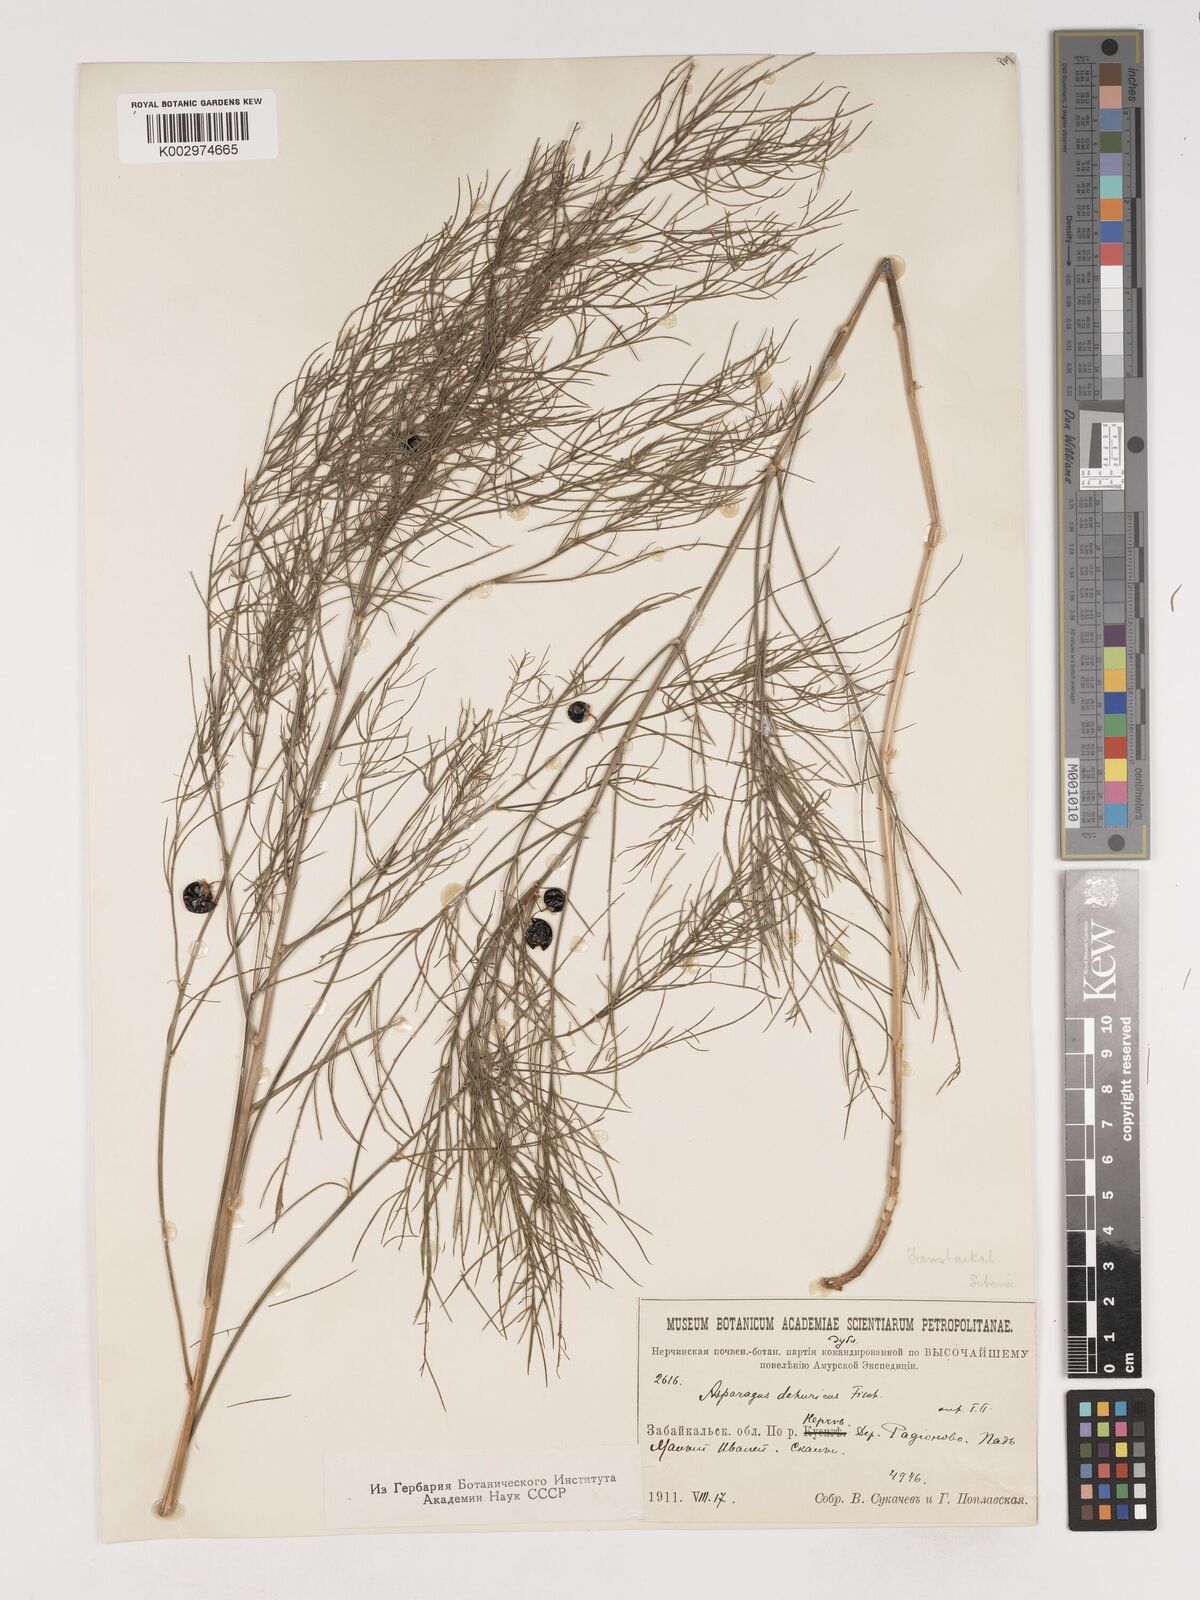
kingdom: Plantae
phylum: Tracheophyta
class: Liliopsida
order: Asparagales
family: Asparagaceae
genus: Asparagus
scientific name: Asparagus
